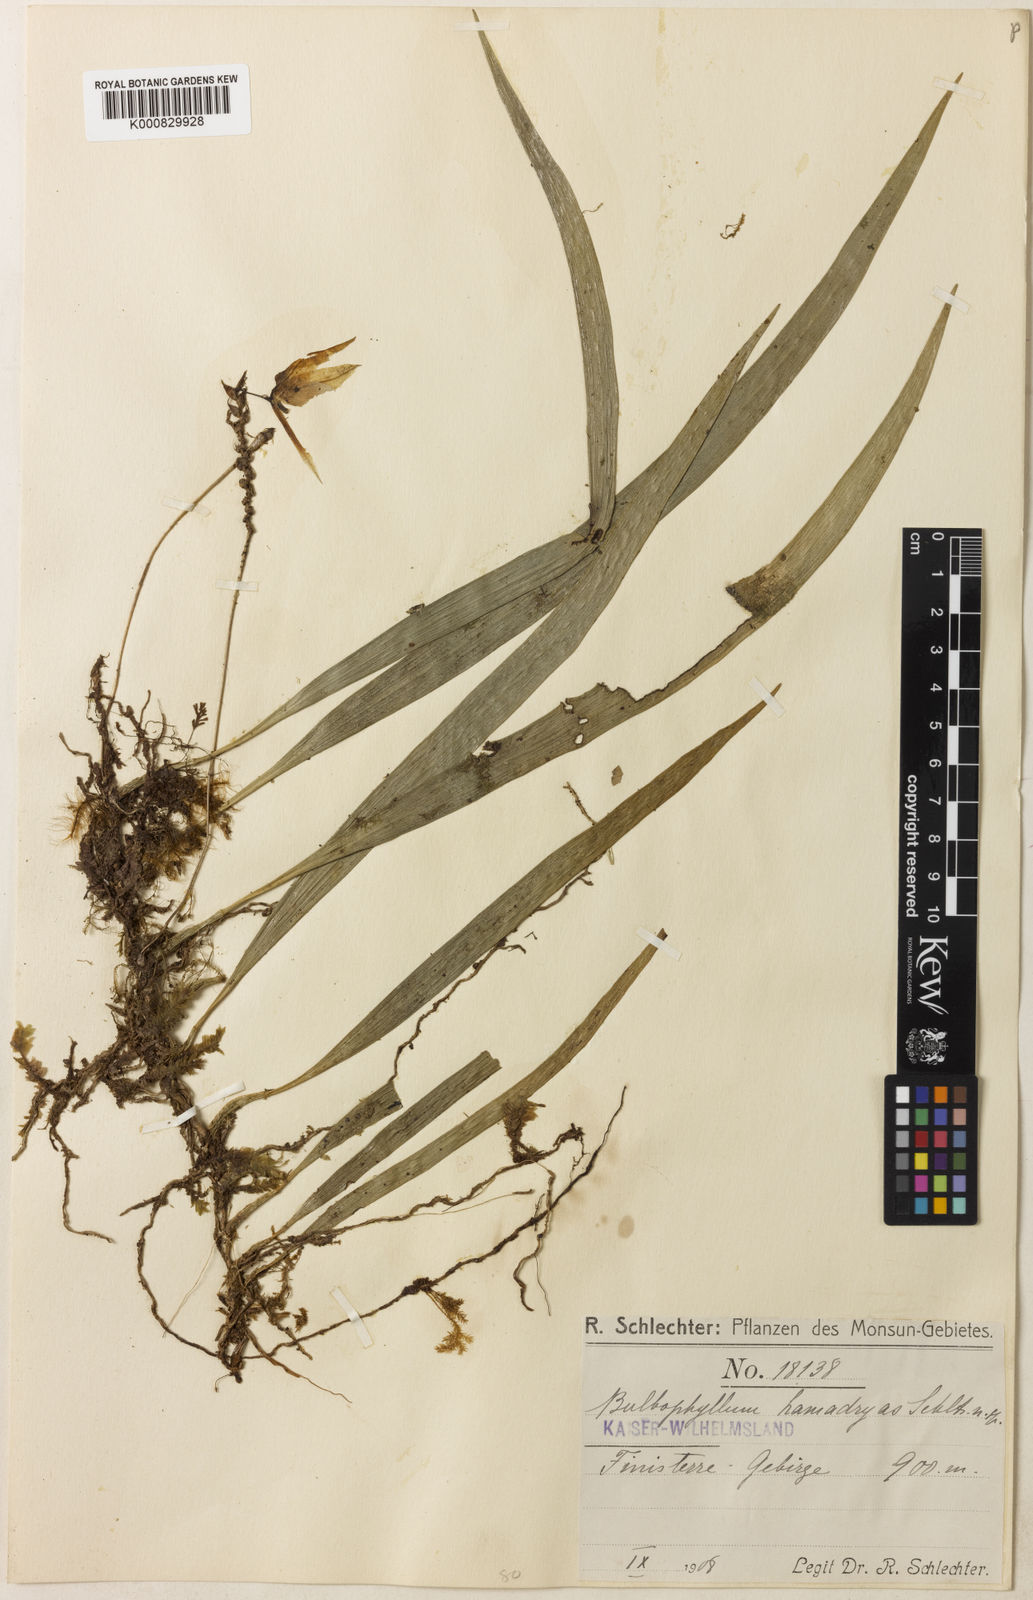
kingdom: Plantae
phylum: Tracheophyta
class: Liliopsida
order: Asparagales
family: Orchidaceae
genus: Bulbophyllum
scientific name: Bulbophyllum hamadryas
